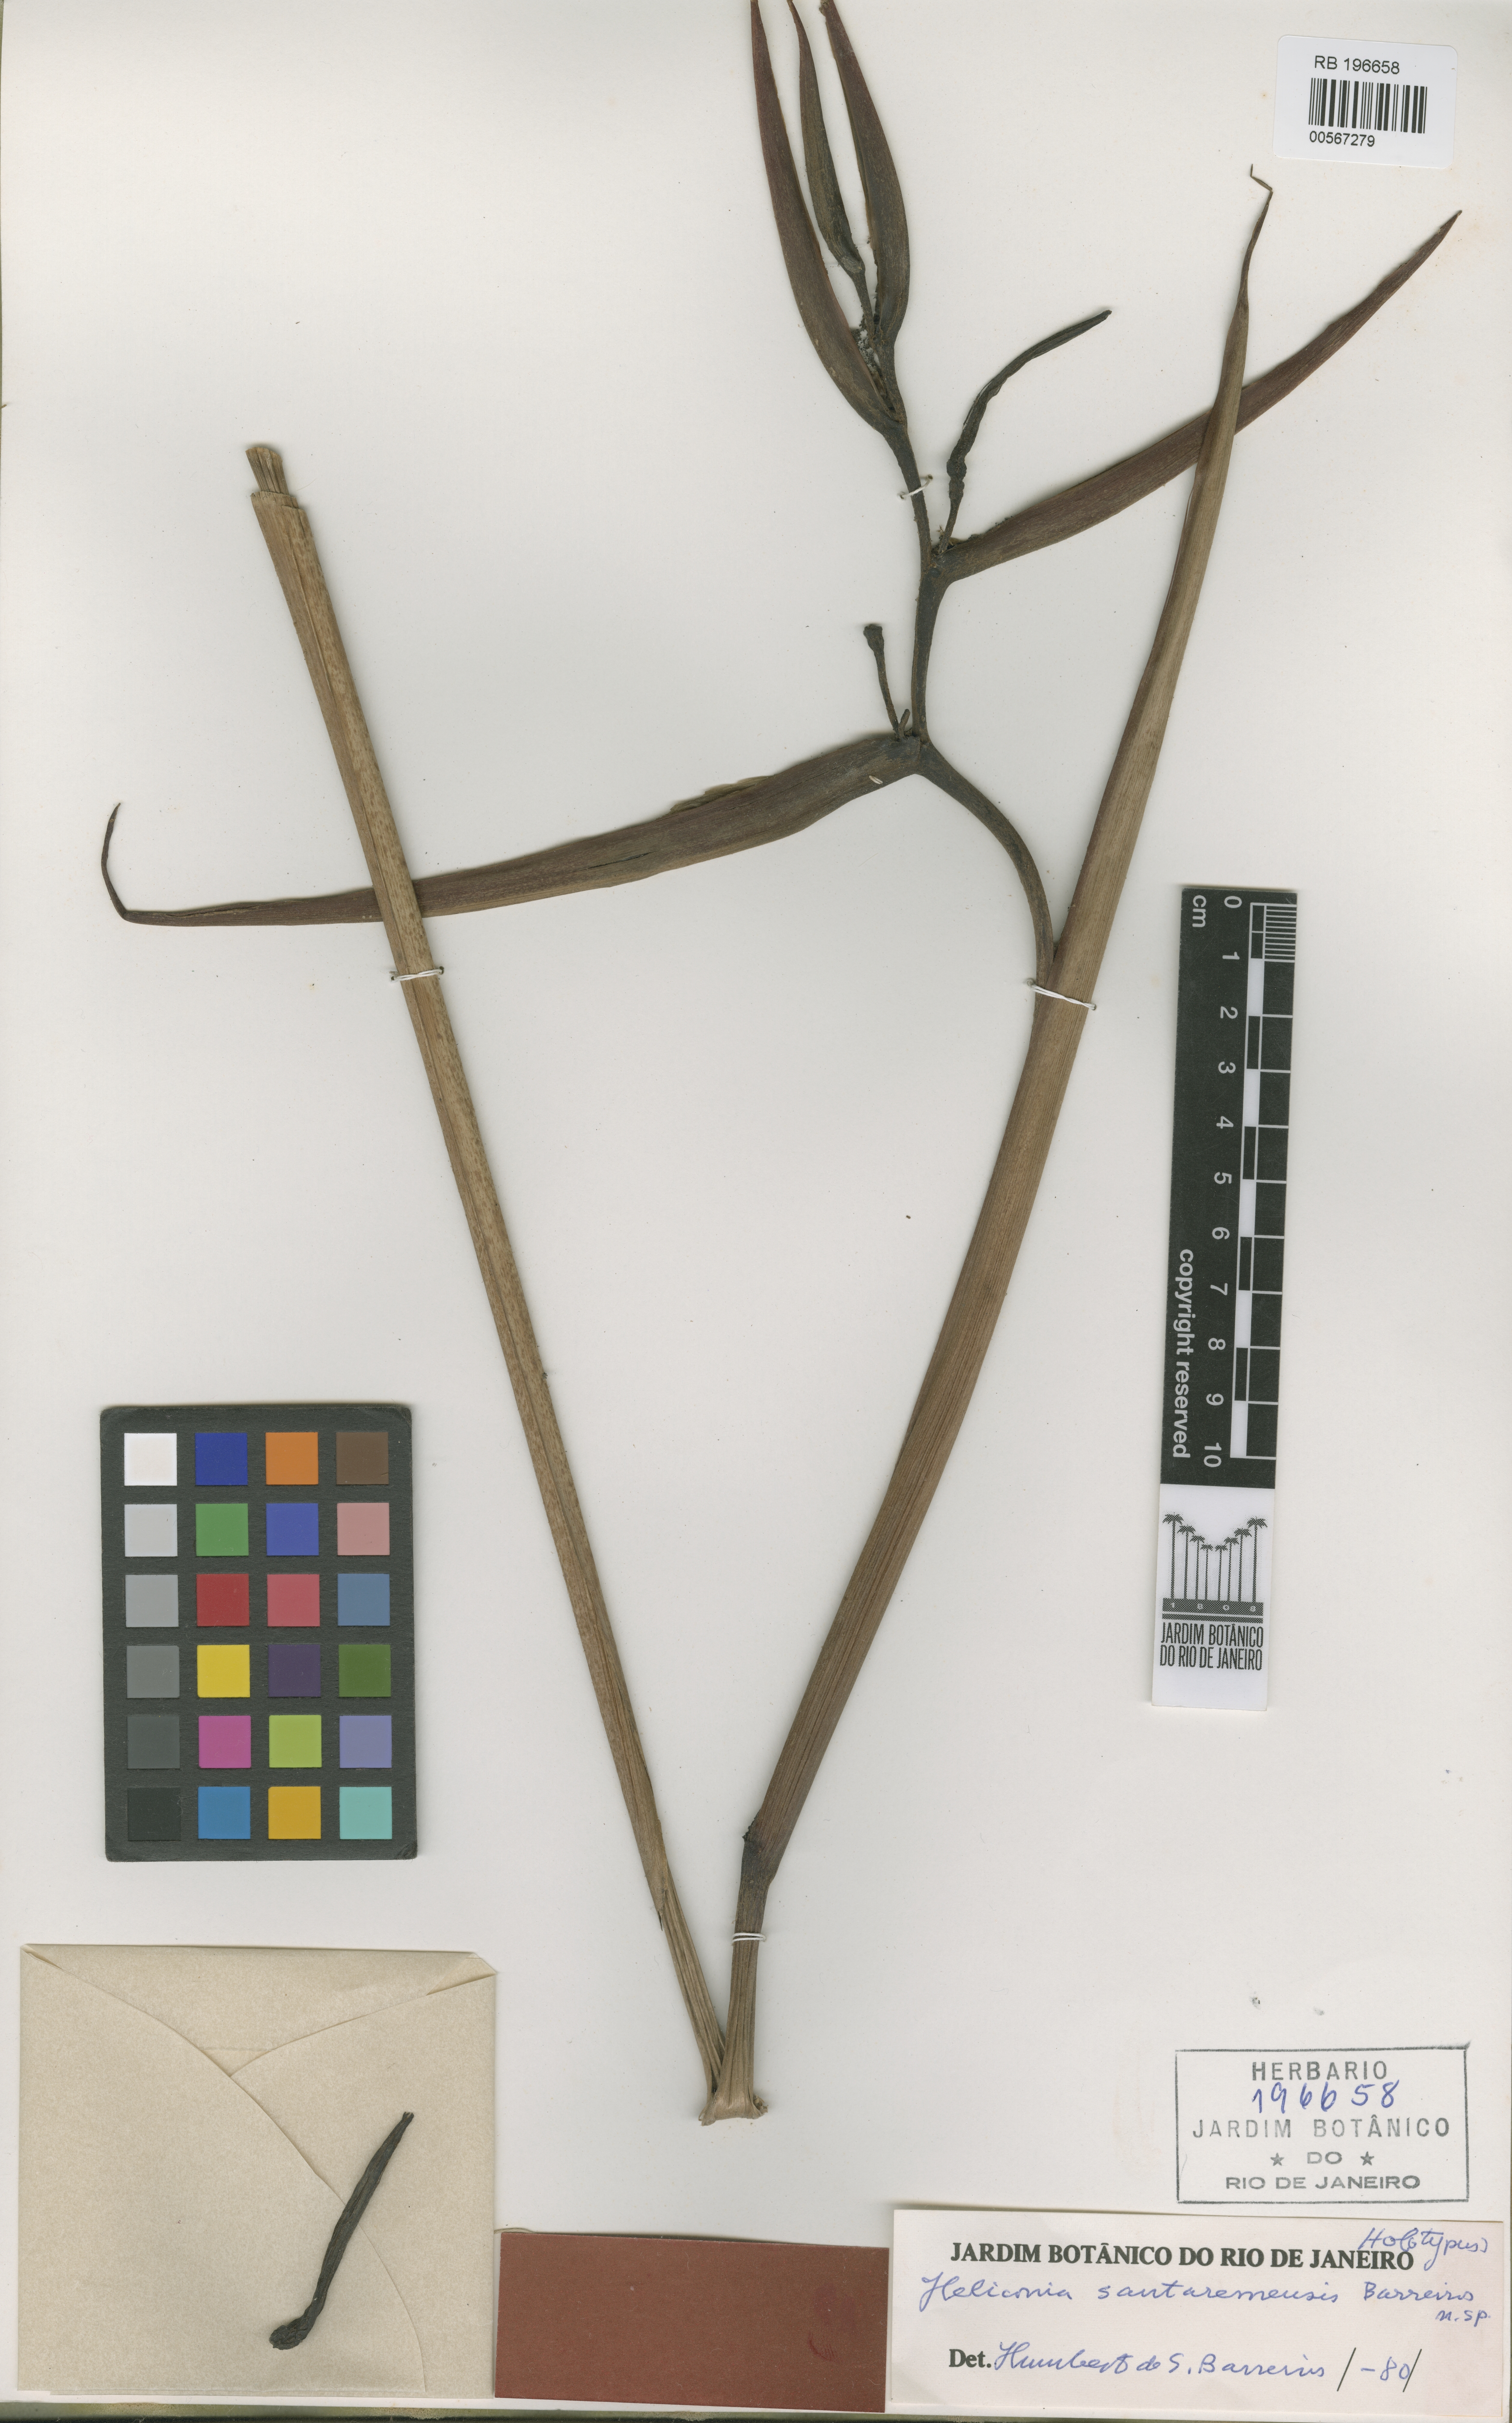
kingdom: Plantae
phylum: Tracheophyta
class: Liliopsida
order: Zingiberales
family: Heliconiaceae
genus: Heliconia
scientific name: Heliconia santaremensis
